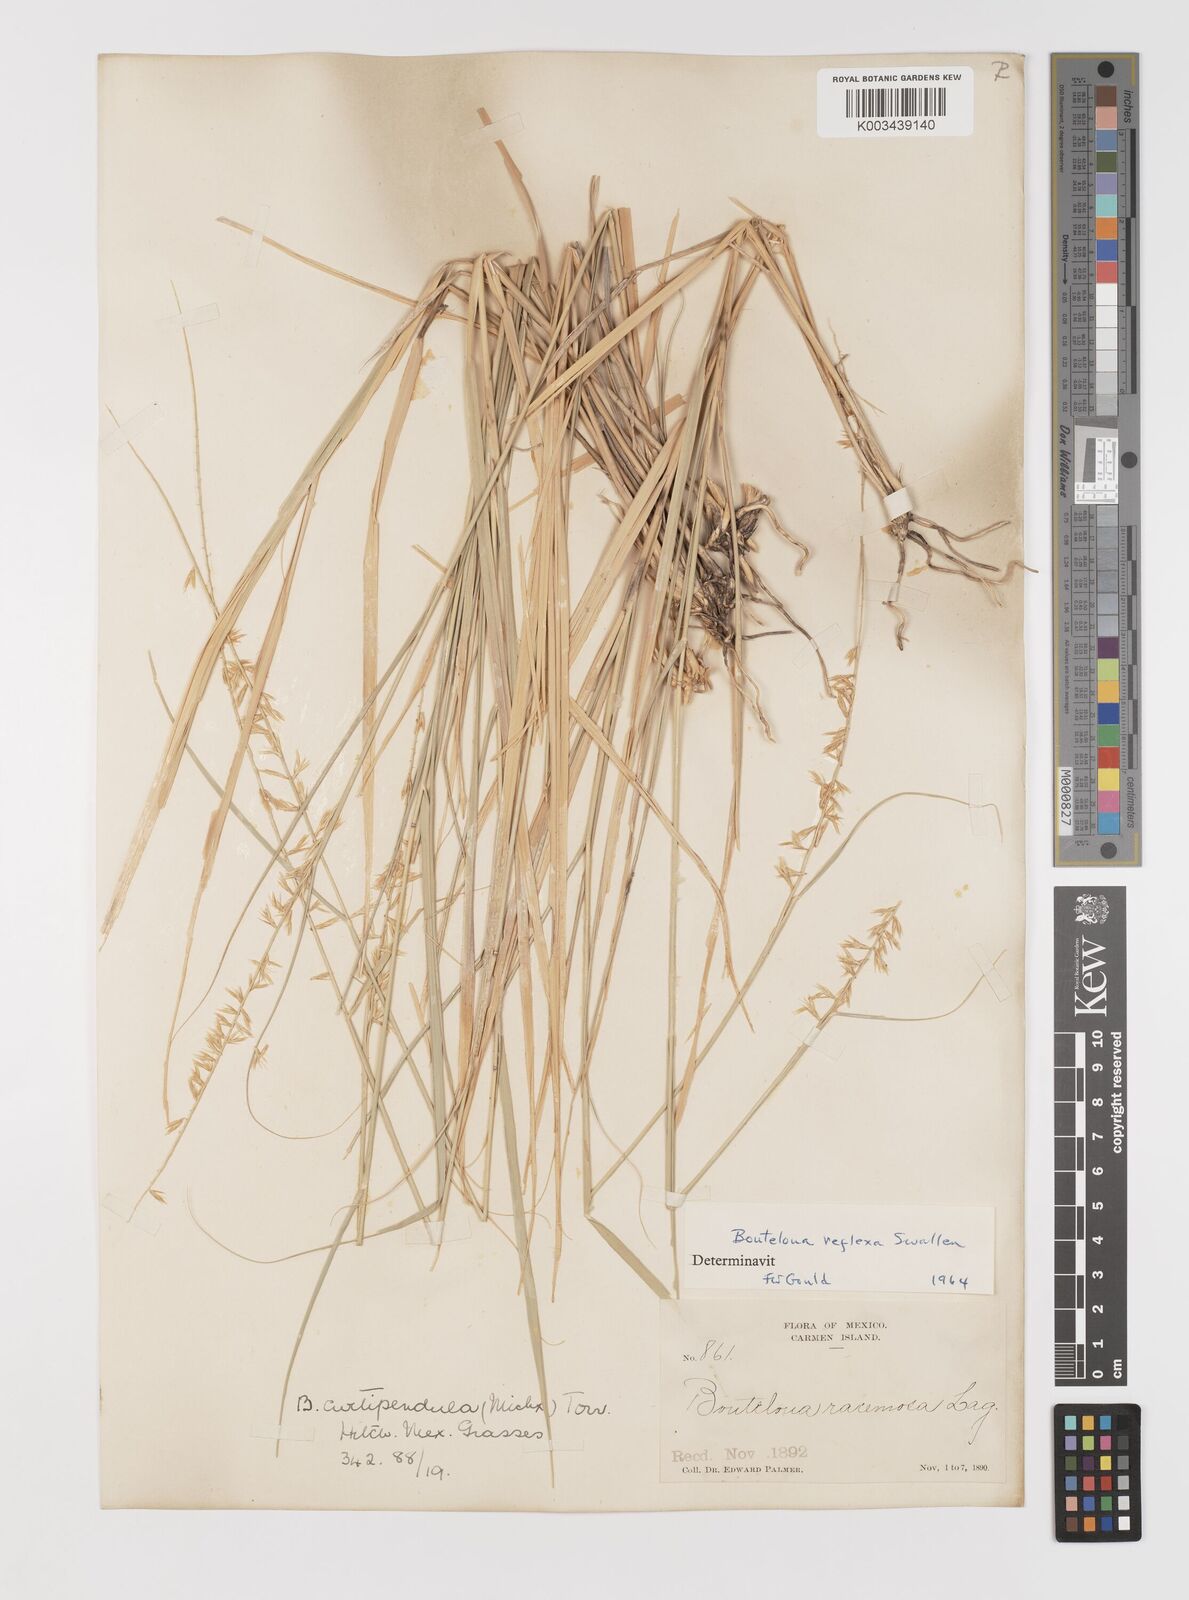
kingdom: Plantae
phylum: Tracheophyta
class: Liliopsida
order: Poales
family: Poaceae
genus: Bouteloua
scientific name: Bouteloua reflexa
